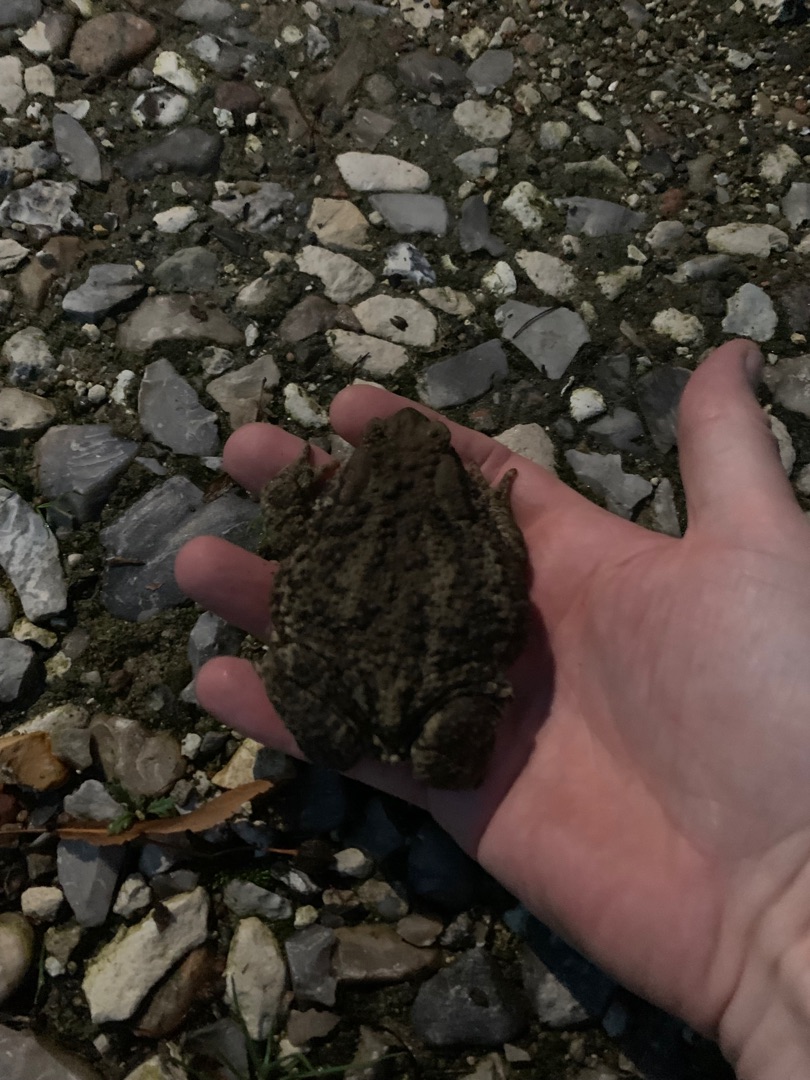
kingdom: Animalia
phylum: Chordata
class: Amphibia
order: Anura
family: Bufonidae
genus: Bufo
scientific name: Bufo bufo
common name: Skrubtudse
